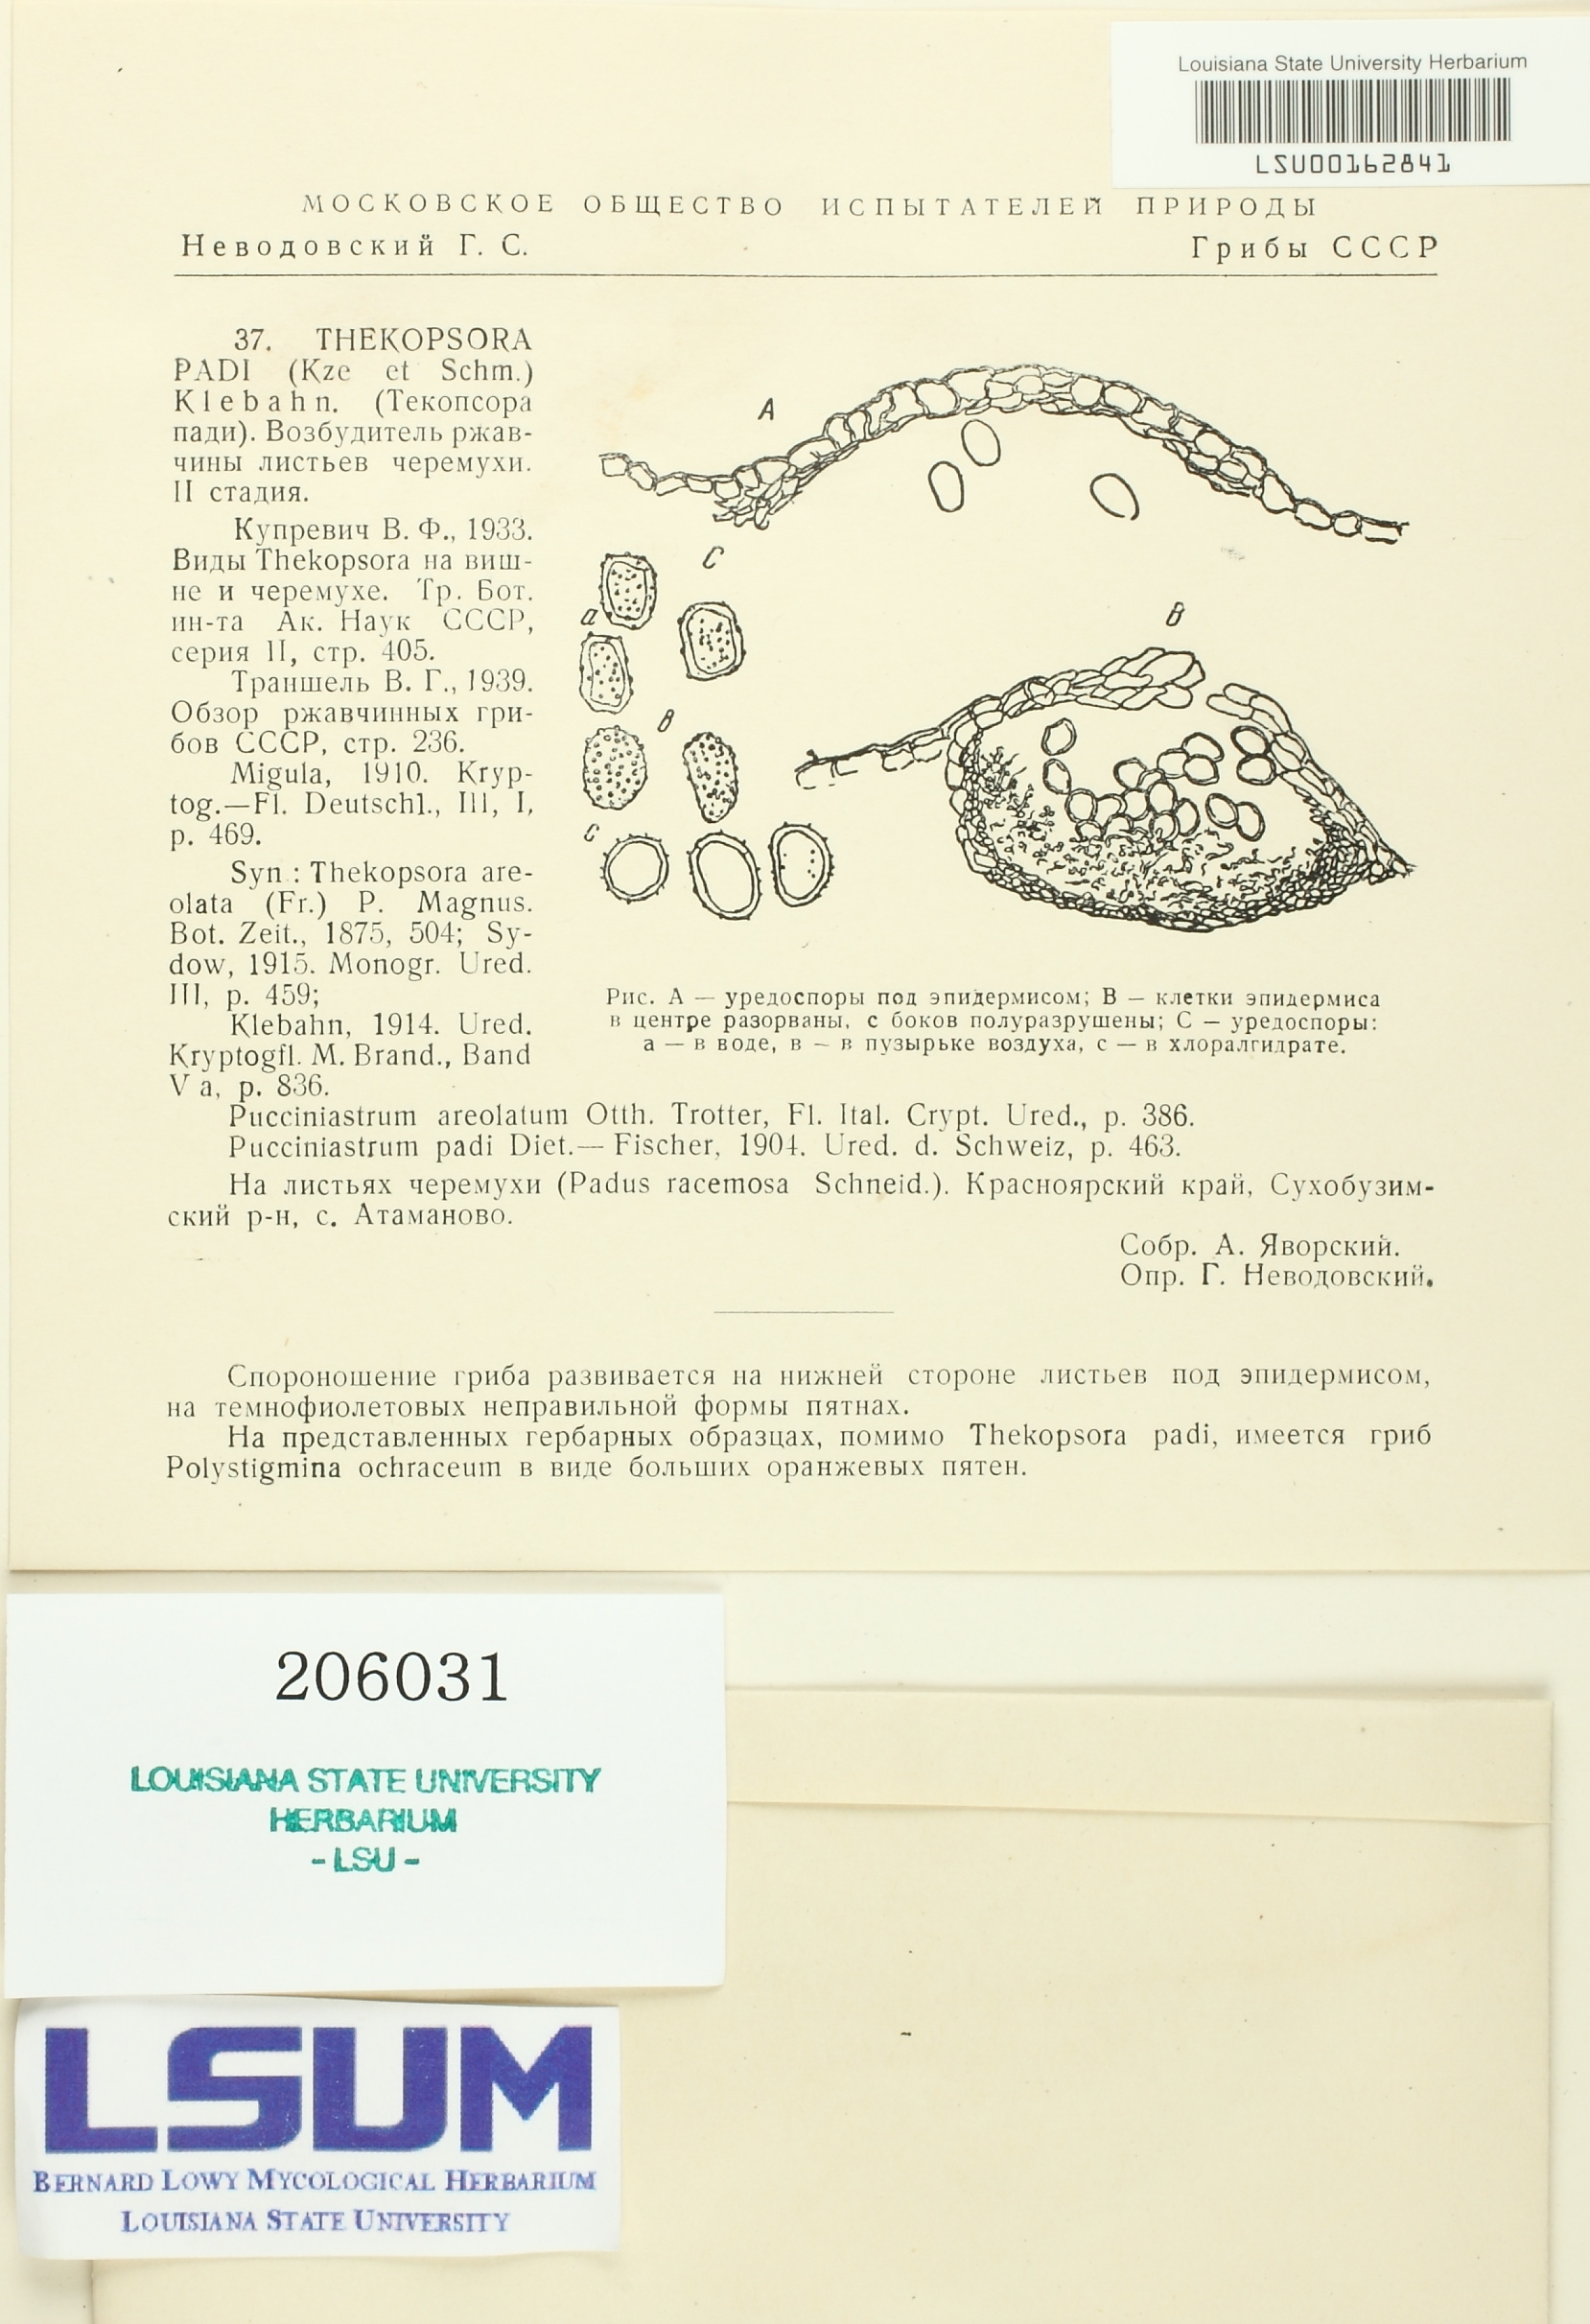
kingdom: Fungi
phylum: Basidiomycota
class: Pucciniomycetes
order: Pucciniales
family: Pucciniastraceae
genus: Thekopsora
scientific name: Thekopsora areolata
